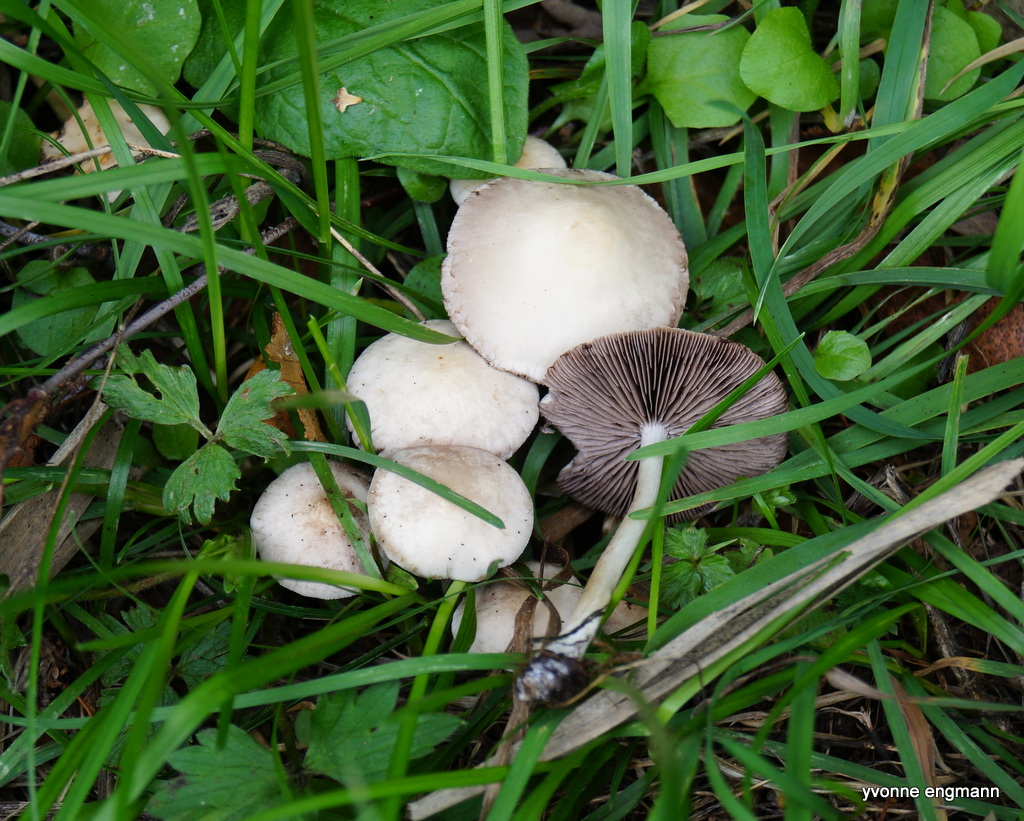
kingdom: Fungi
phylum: Basidiomycota
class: Agaricomycetes
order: Agaricales
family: Psathyrellaceae
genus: Candolleomyces
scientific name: Candolleomyces candolleanus
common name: Candolles mørkhat
